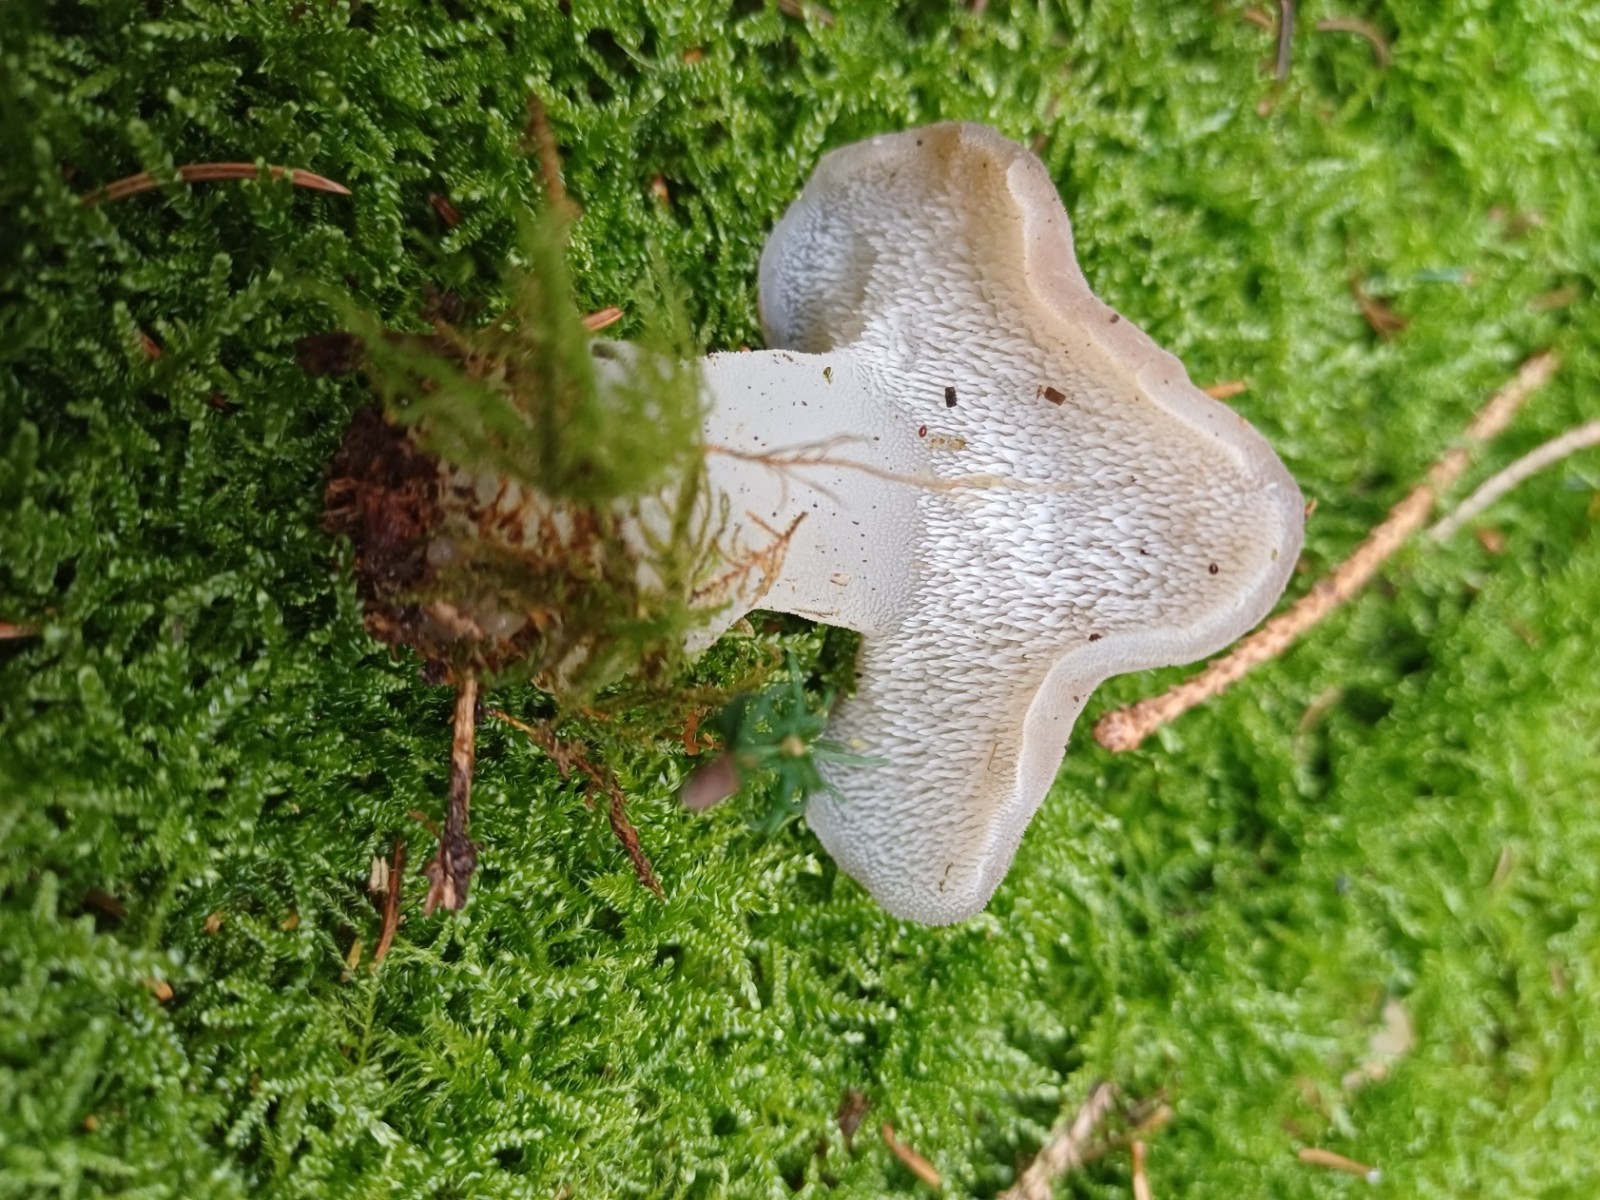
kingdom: Fungi
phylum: Basidiomycota
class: Agaricomycetes
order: Auriculariales
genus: Pseudohydnum
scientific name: Pseudohydnum gelatinosum
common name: bævretand
